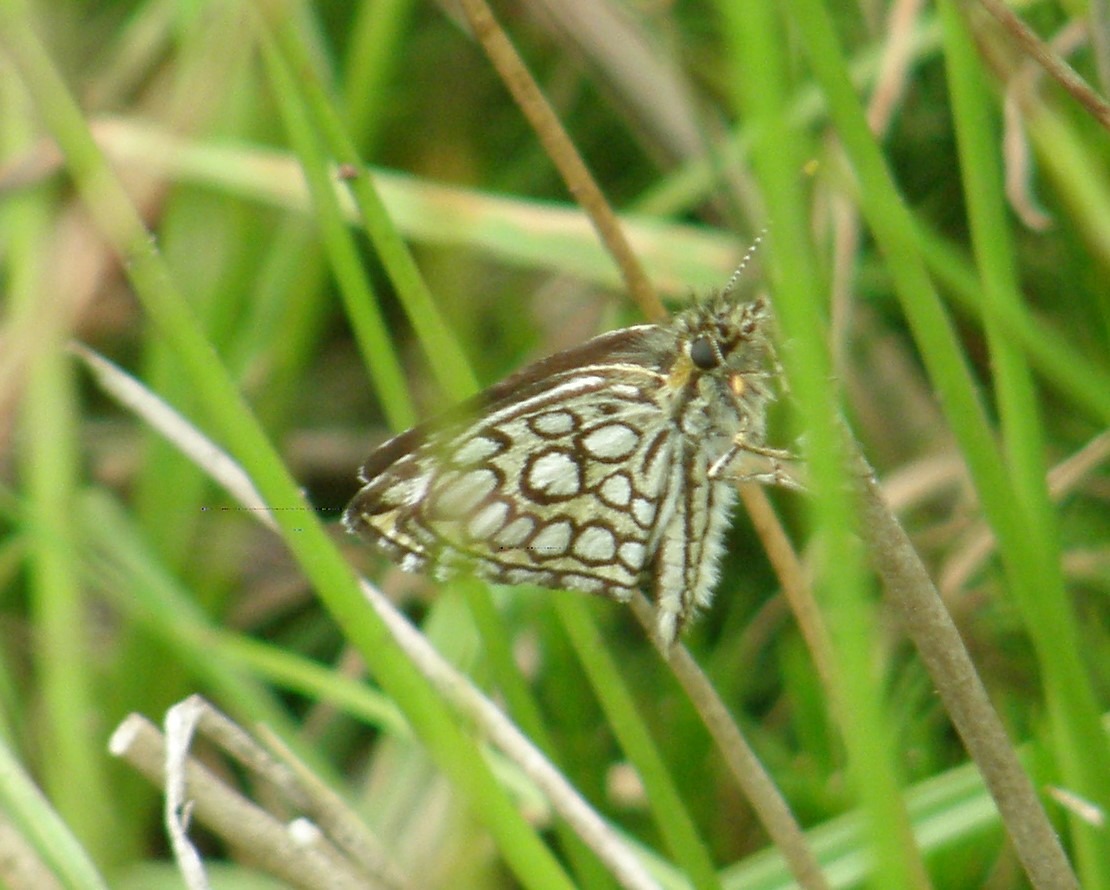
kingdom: Animalia
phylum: Arthropoda
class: Insecta
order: Lepidoptera
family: Hesperiidae
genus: Heteropterus
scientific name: Heteropterus morpheus
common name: Spejlbredpande
